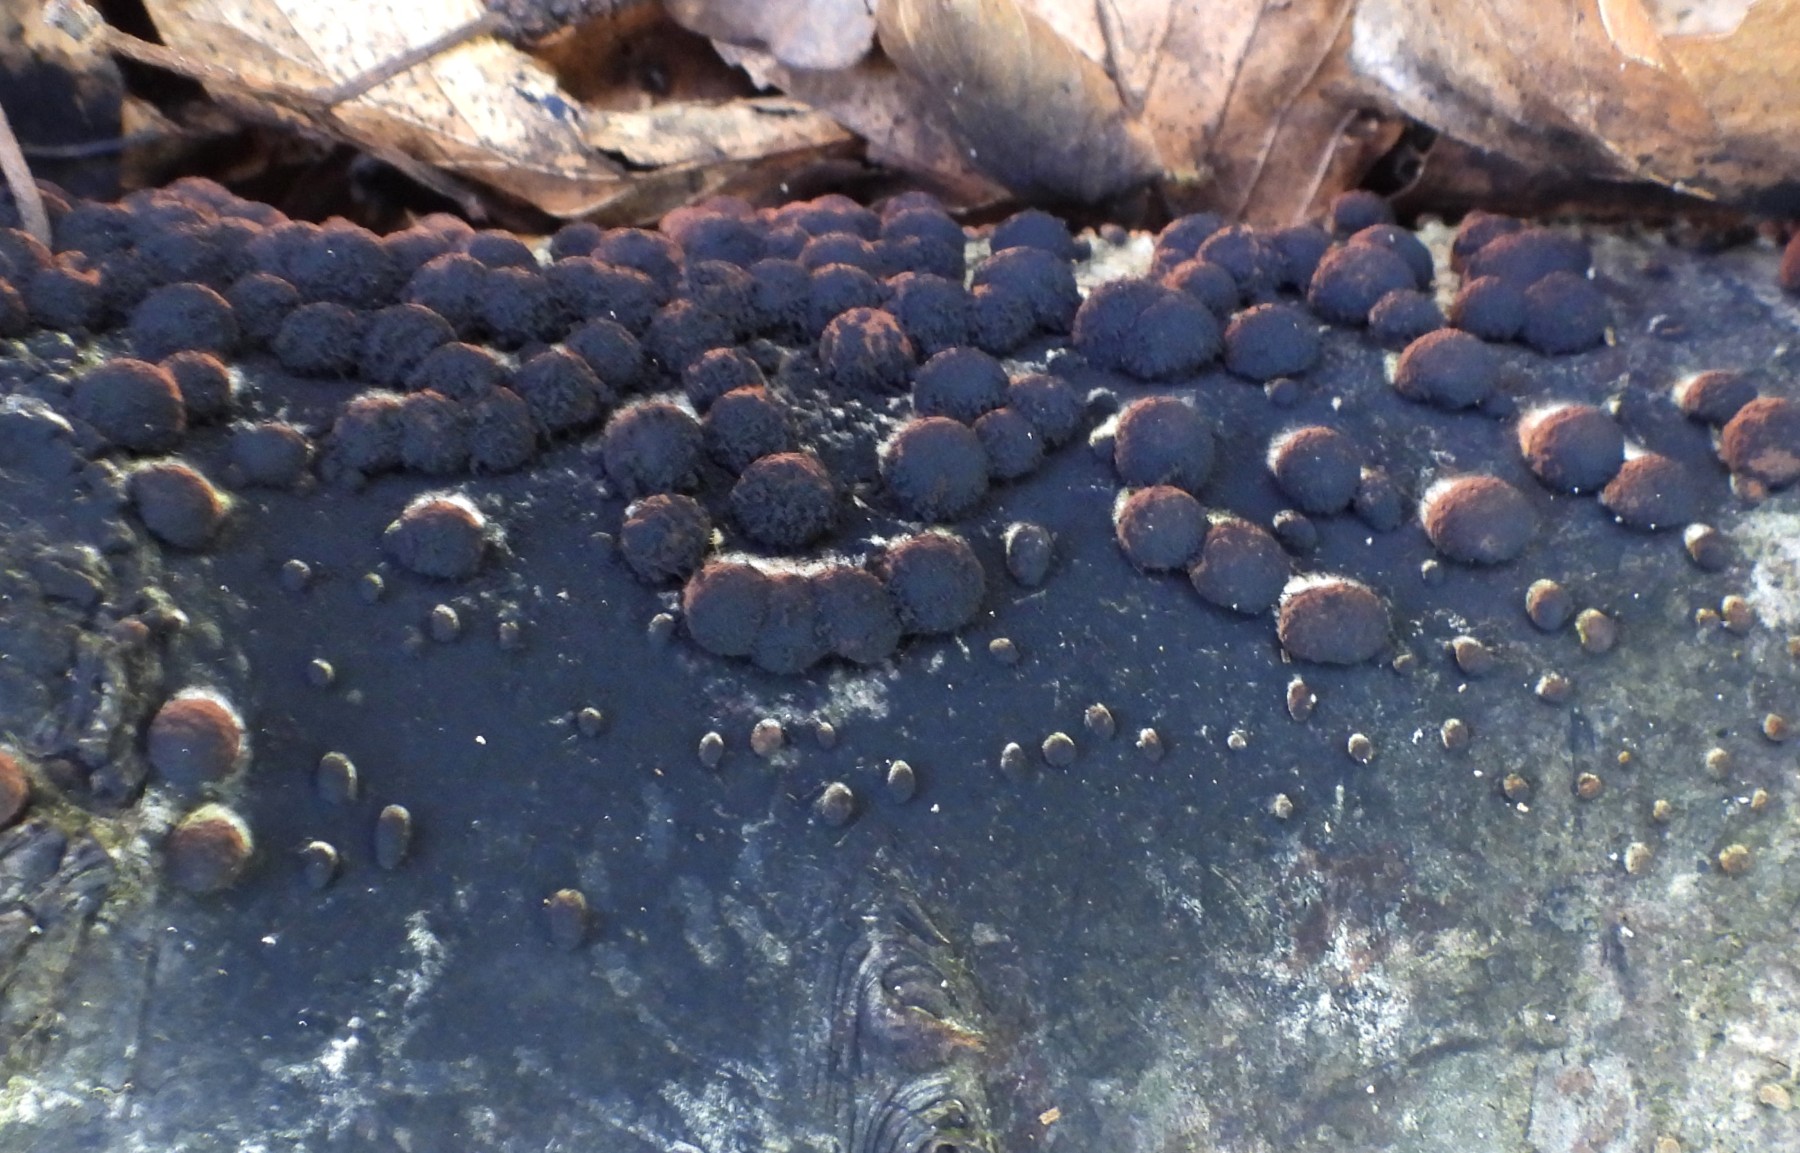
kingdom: Fungi
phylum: Ascomycota
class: Sordariomycetes
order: Xylariales
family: Hypoxylaceae
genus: Hypoxylon
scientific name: Hypoxylon fragiforme
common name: kuljordbær
